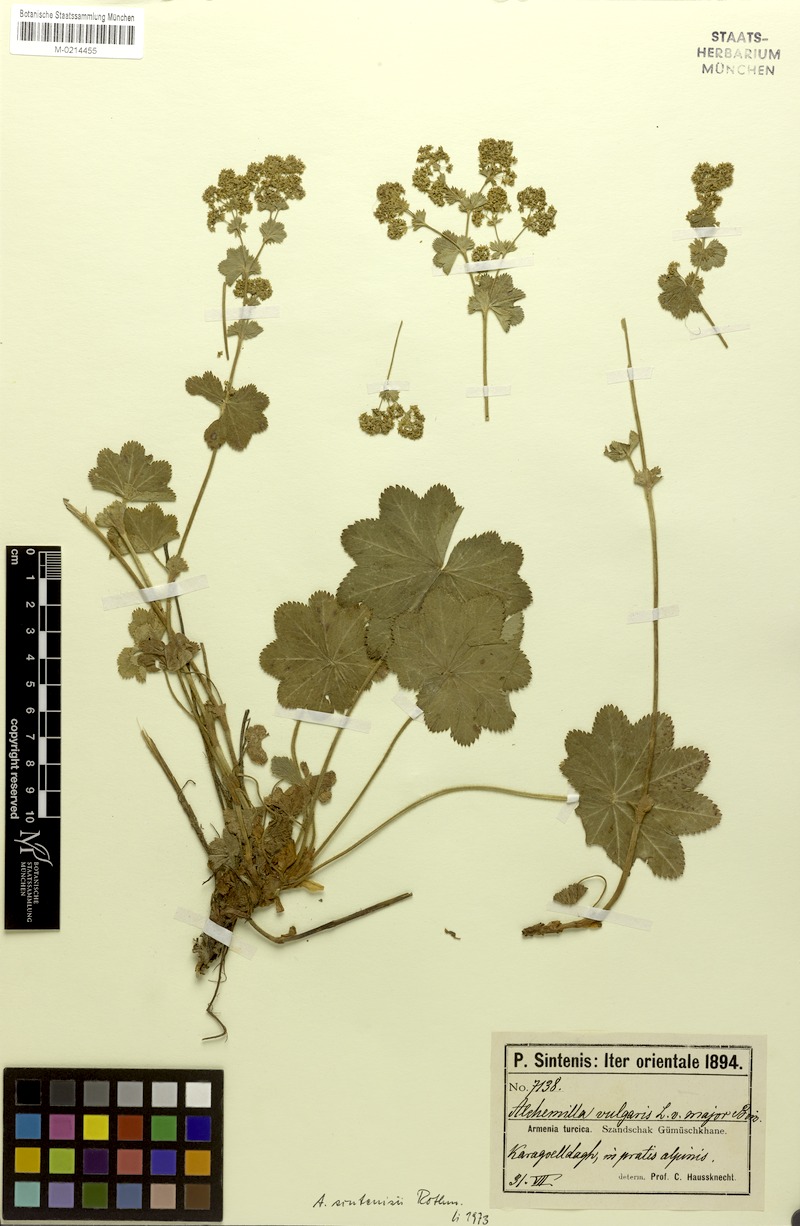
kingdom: Plantae
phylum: Tracheophyta
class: Magnoliopsida
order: Rosales
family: Rosaceae
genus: Alchemilla
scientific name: Alchemilla sintenisii
